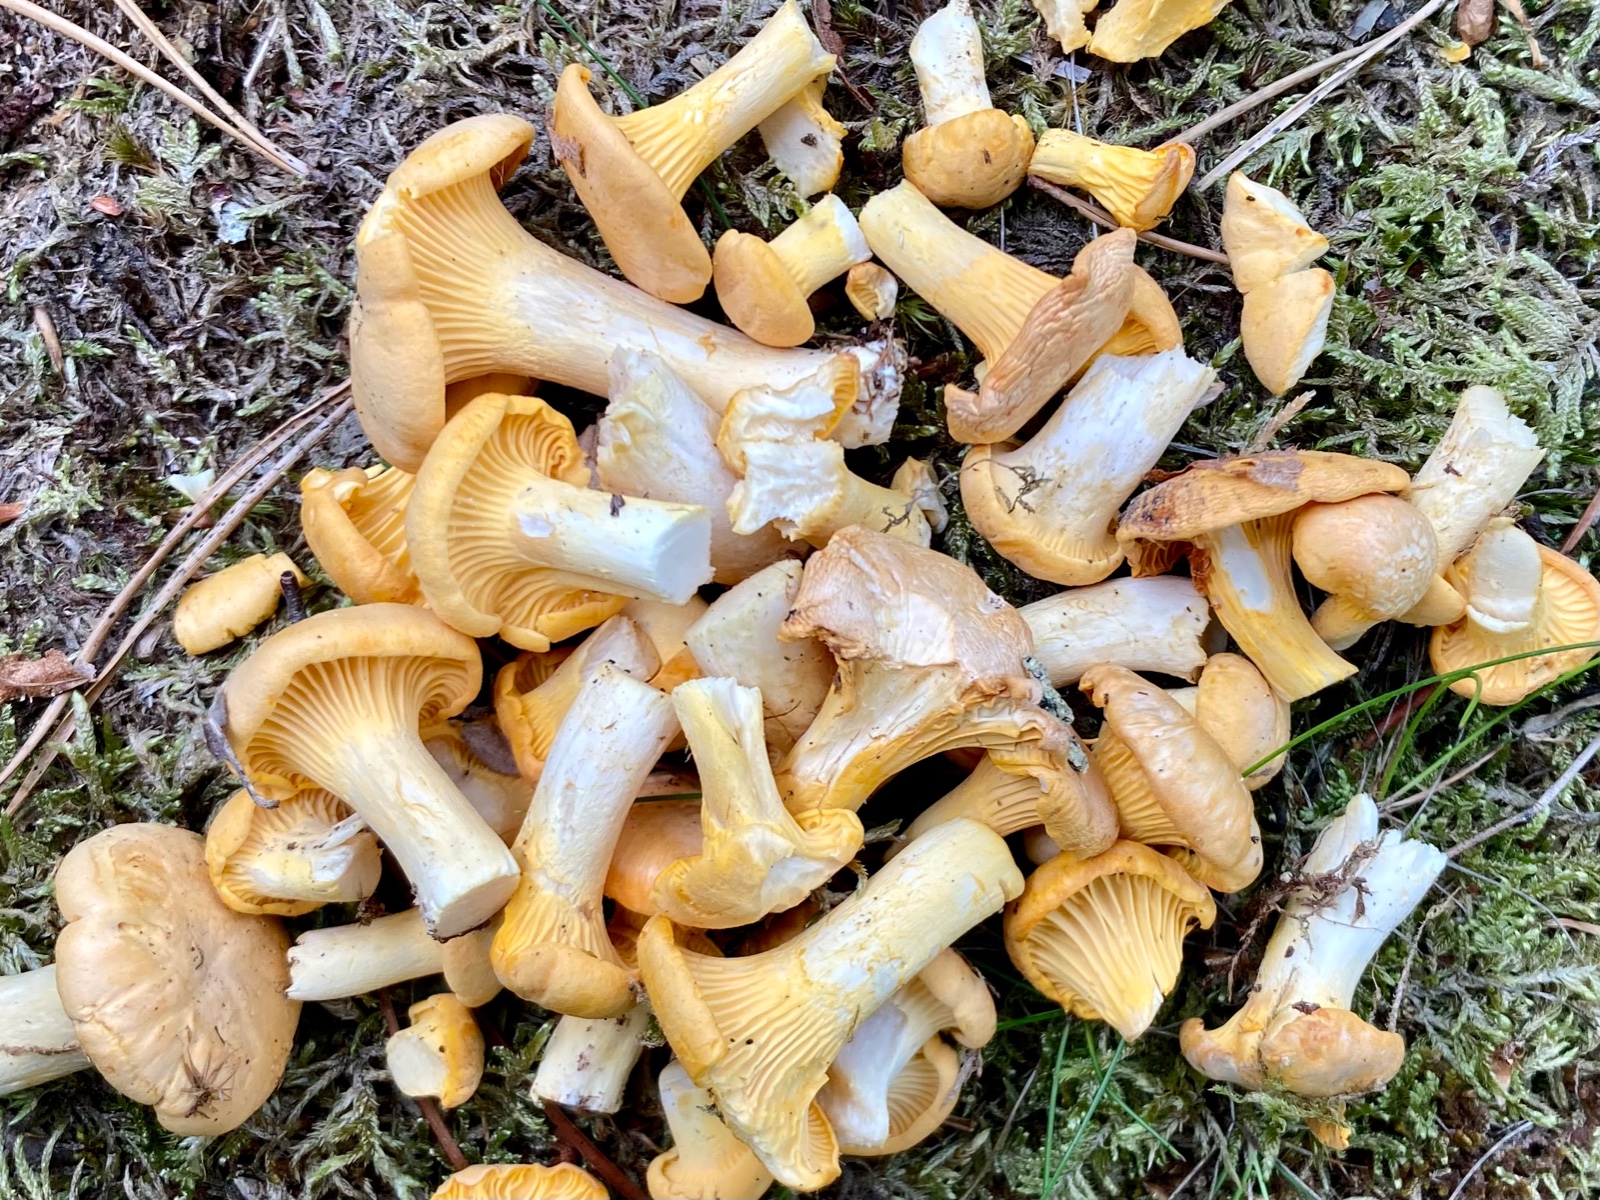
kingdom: Fungi
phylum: Basidiomycota
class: Agaricomycetes
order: Cantharellales
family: Hydnaceae
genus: Cantharellus
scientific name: Cantharellus cibarius
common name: almindelig kantarel
